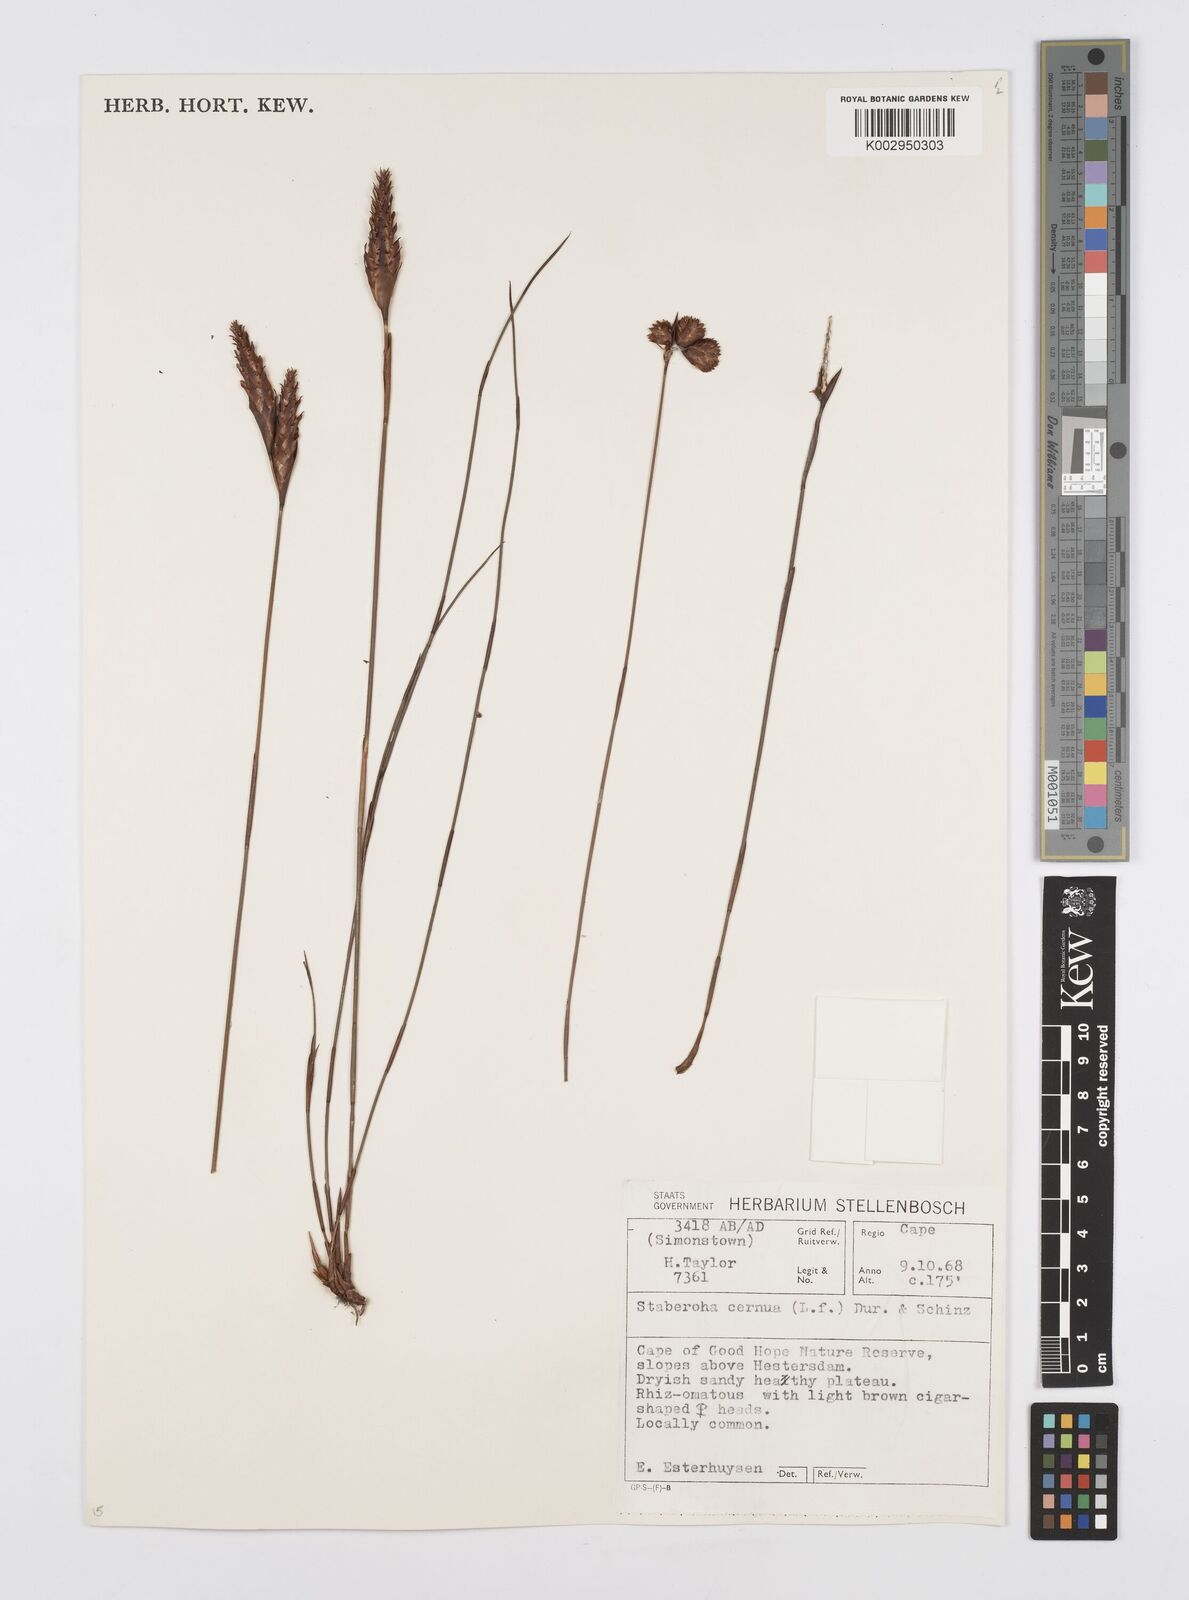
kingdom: Plantae
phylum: Tracheophyta
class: Liliopsida
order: Poales
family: Restionaceae
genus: Staberoha
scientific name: Staberoha cernua
